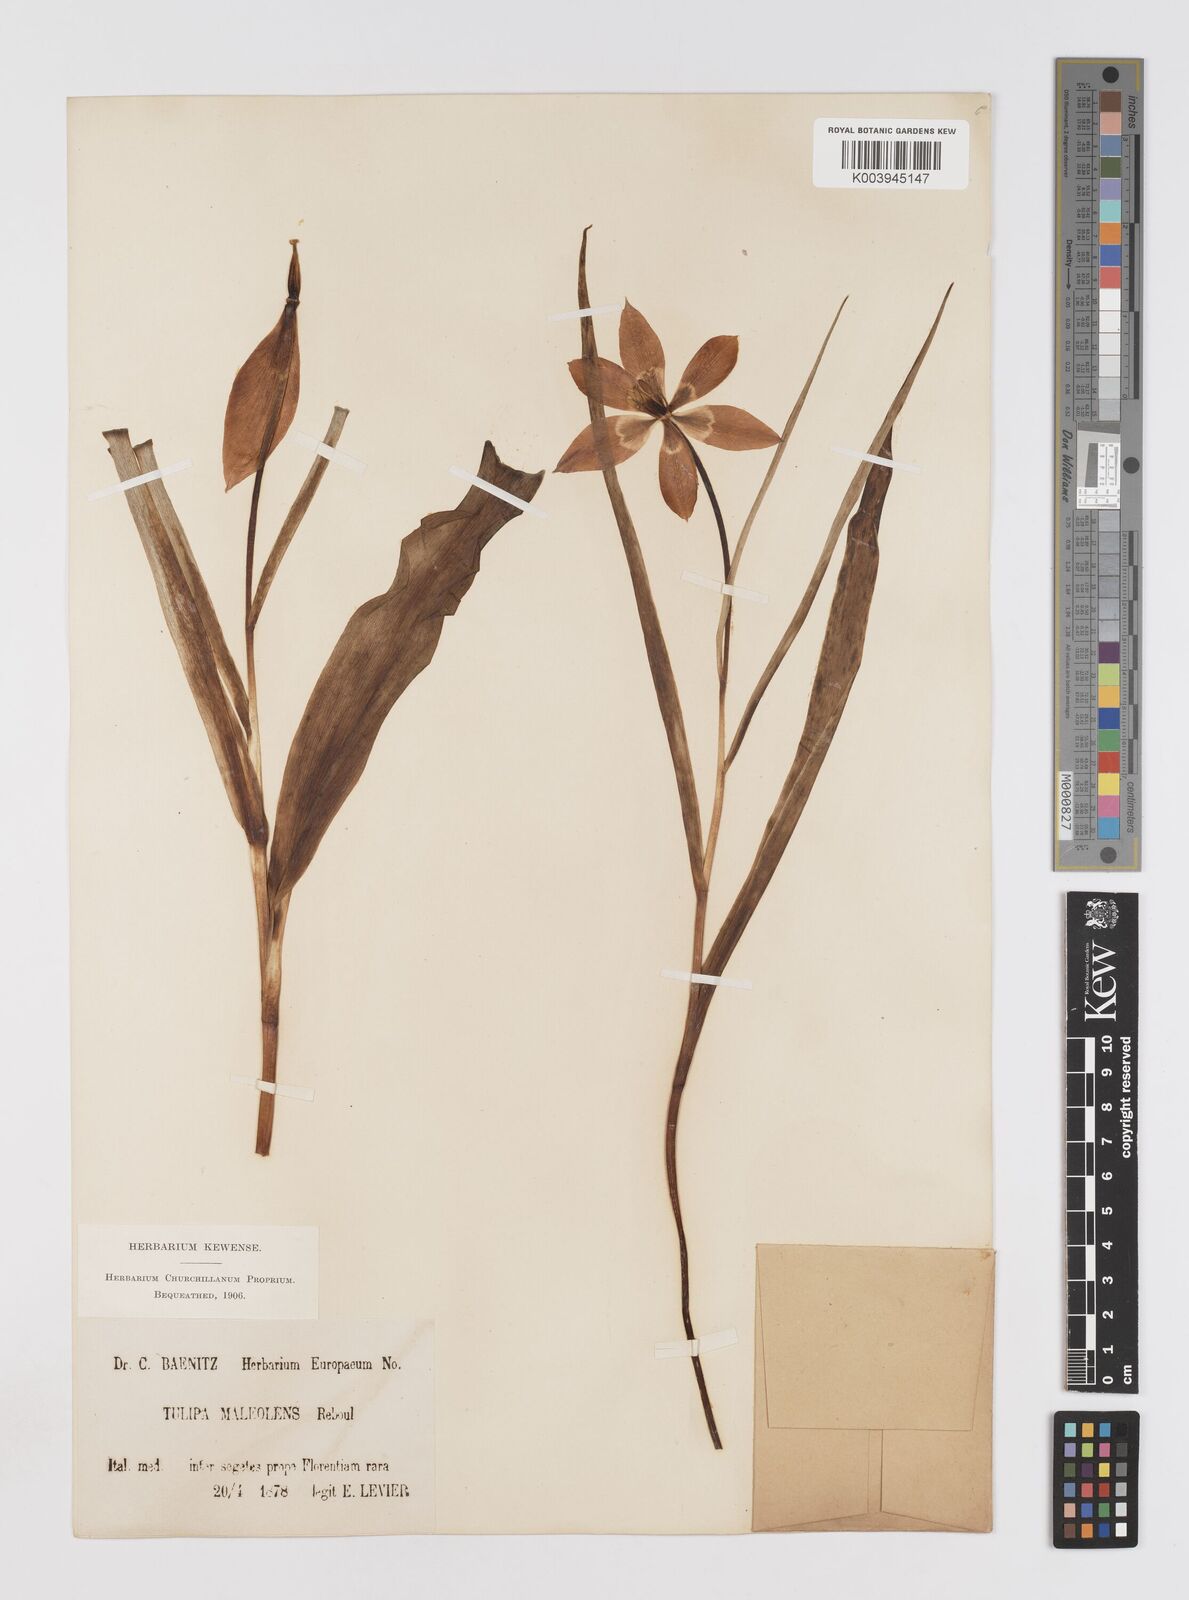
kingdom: Plantae
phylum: Tracheophyta
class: Liliopsida
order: Liliales
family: Liliaceae
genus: Tulipa
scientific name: Tulipa agenensis
